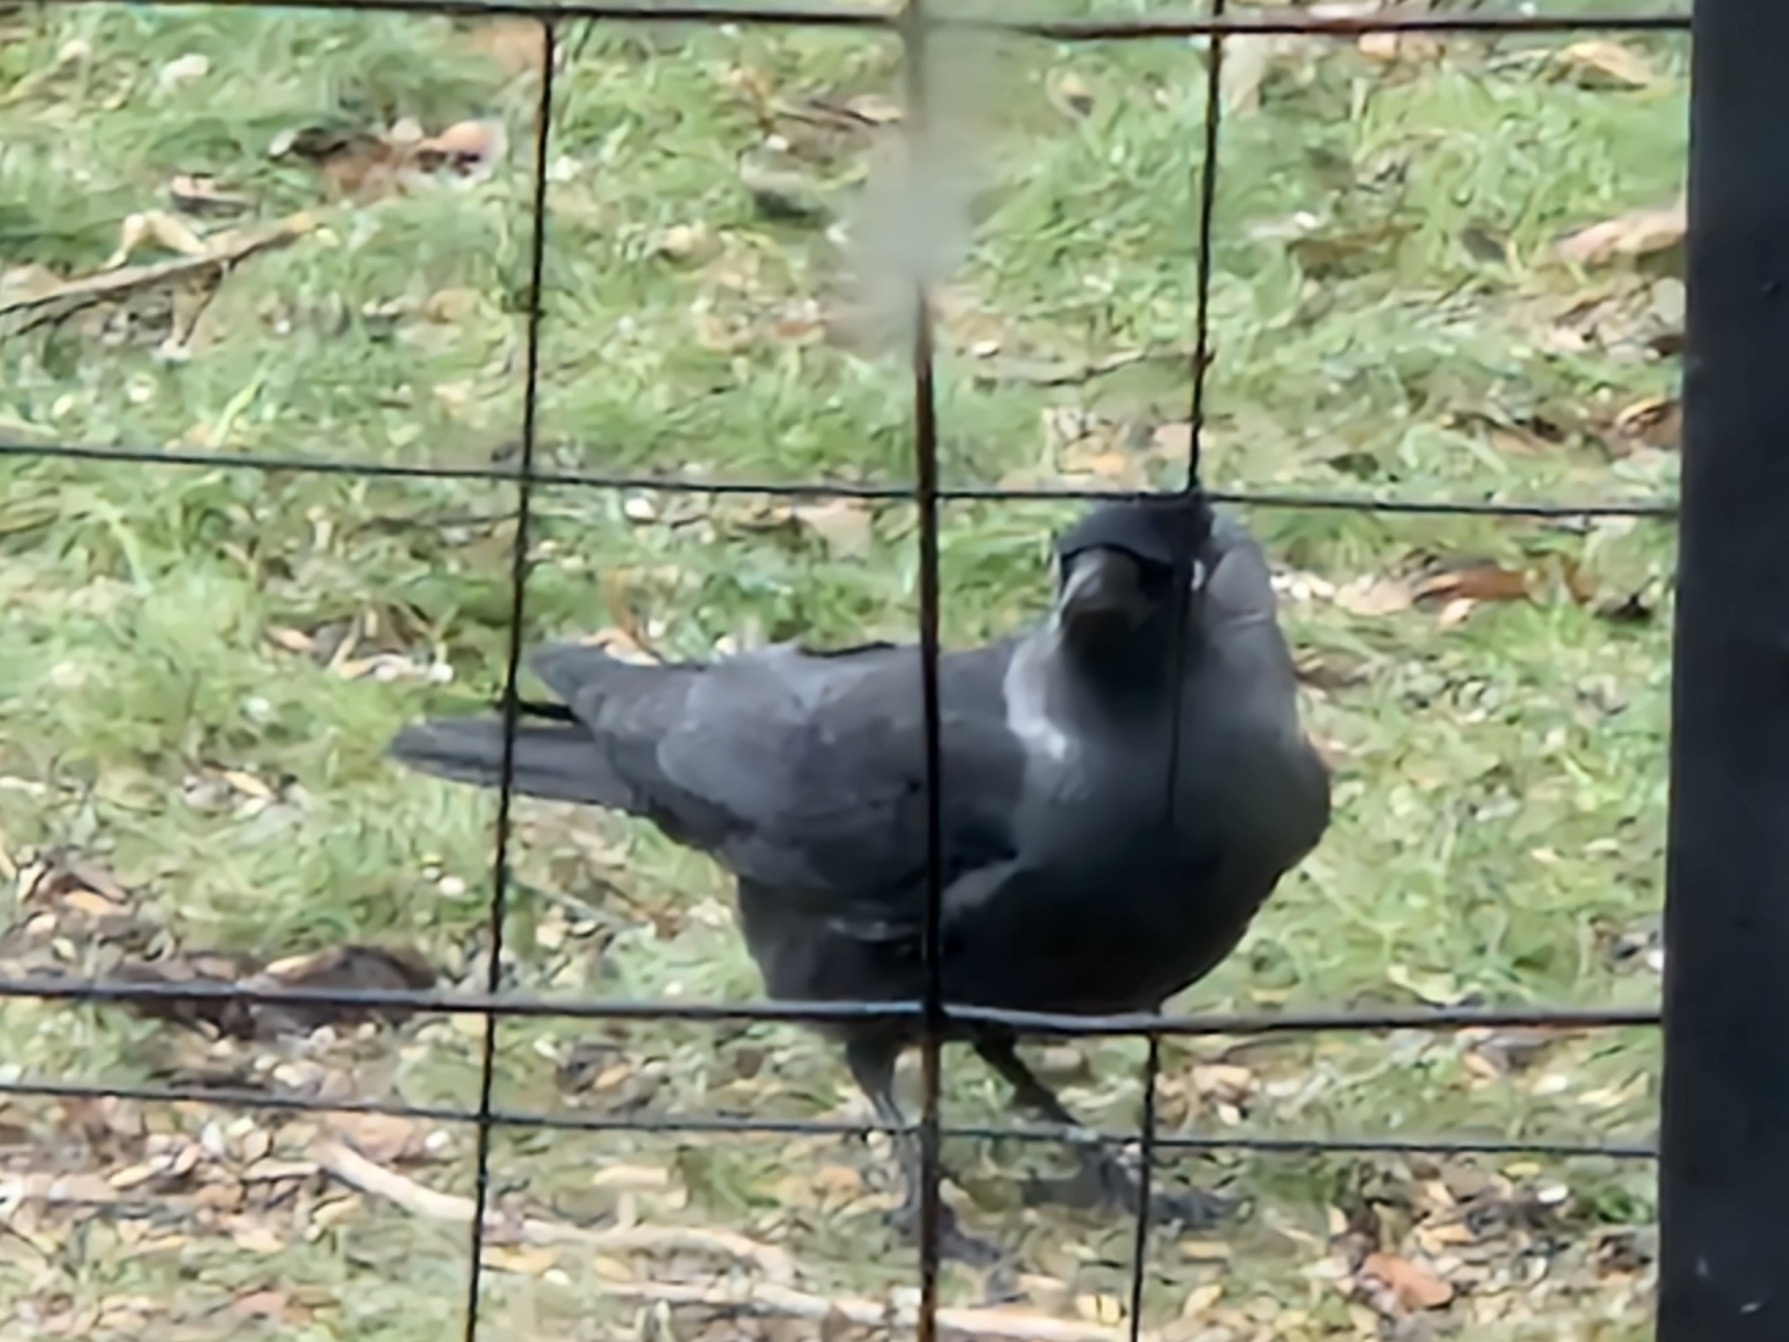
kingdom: Animalia
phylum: Chordata
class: Aves
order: Passeriformes
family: Corvidae
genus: Coloeus
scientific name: Coloeus monedula
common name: Allike
